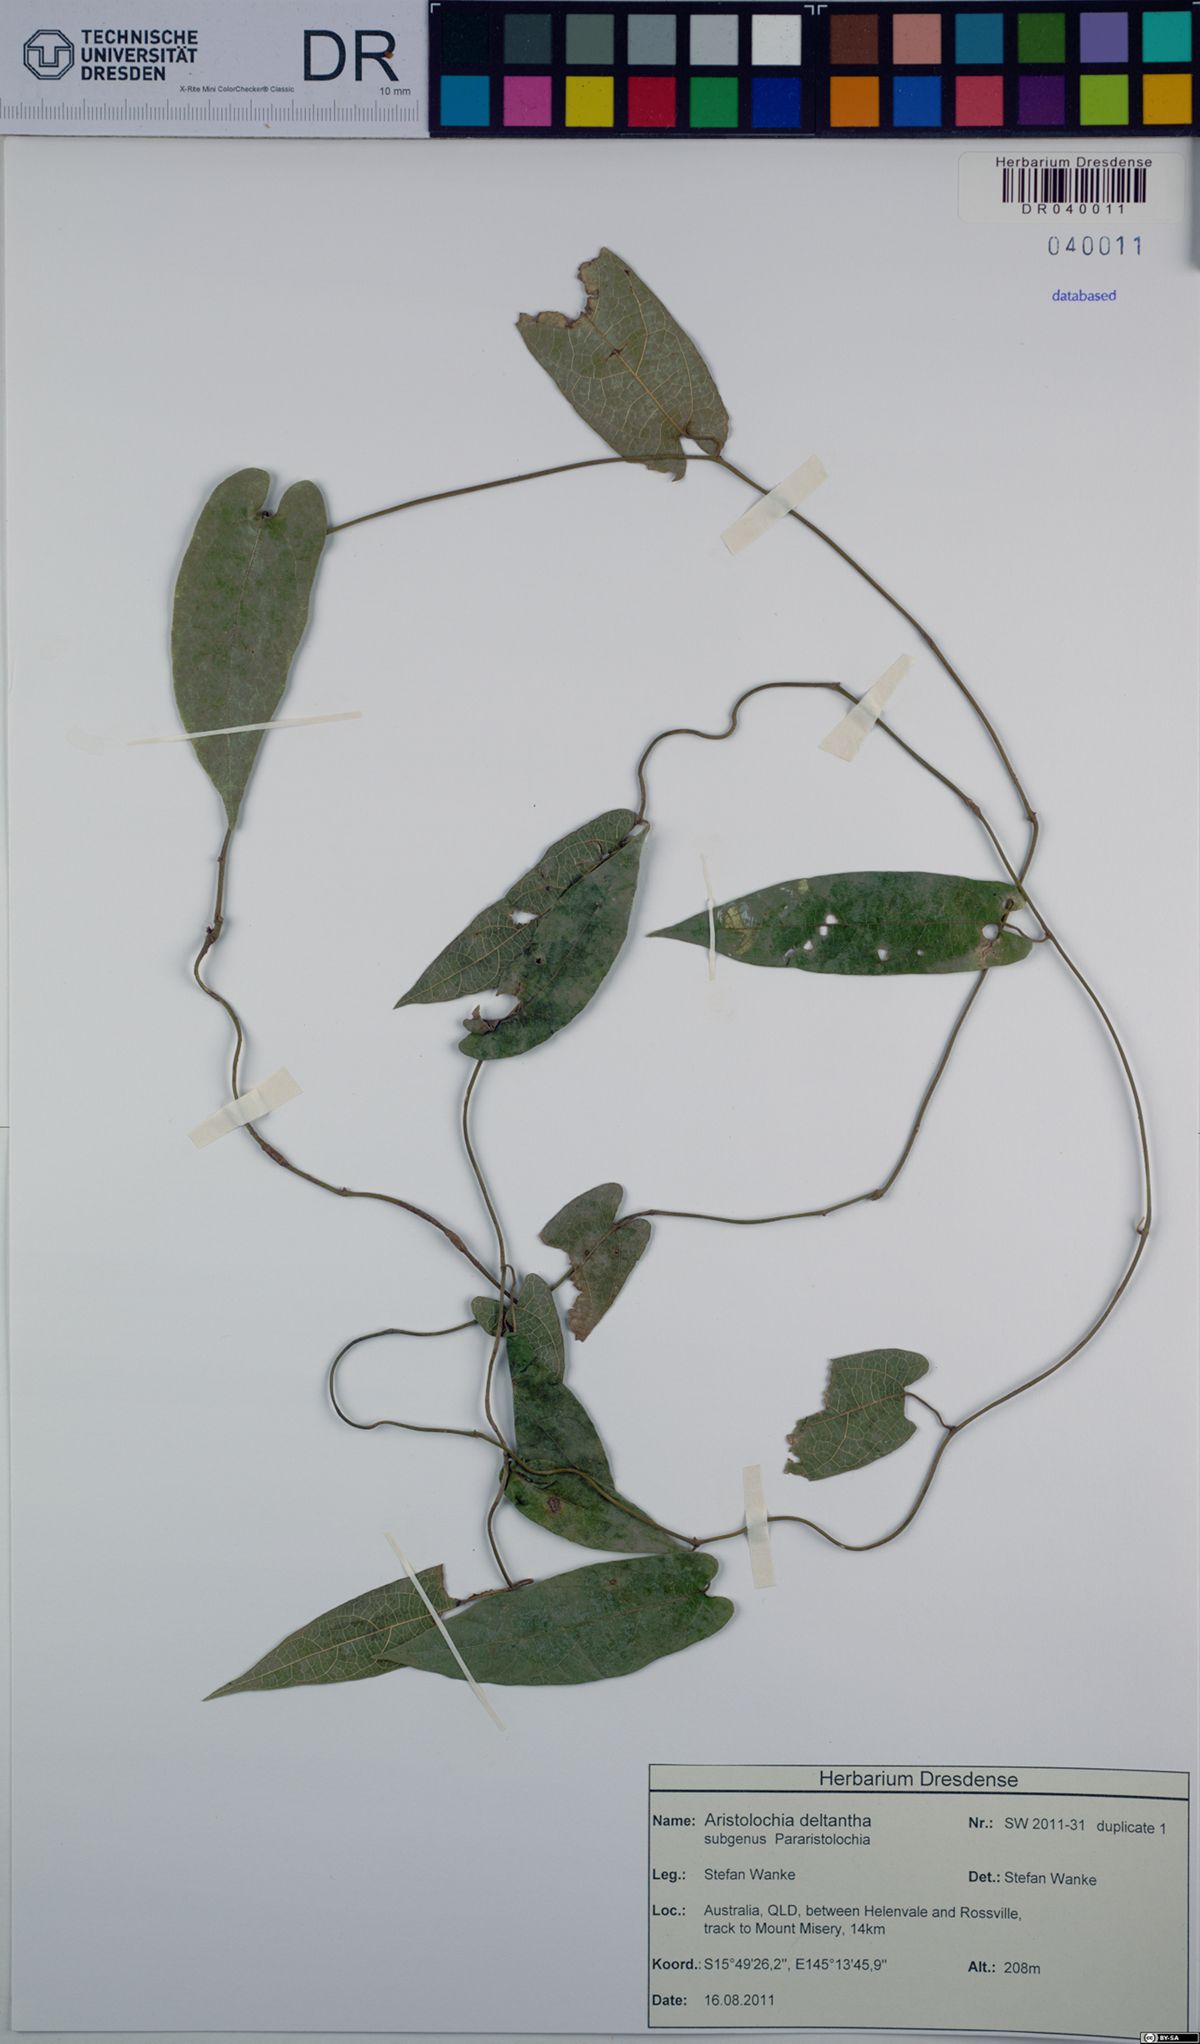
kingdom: Plantae
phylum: Tracheophyta
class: Magnoliopsida
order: Piperales
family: Aristolochiaceae
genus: Aristolochia
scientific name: Aristolochia deltantha
